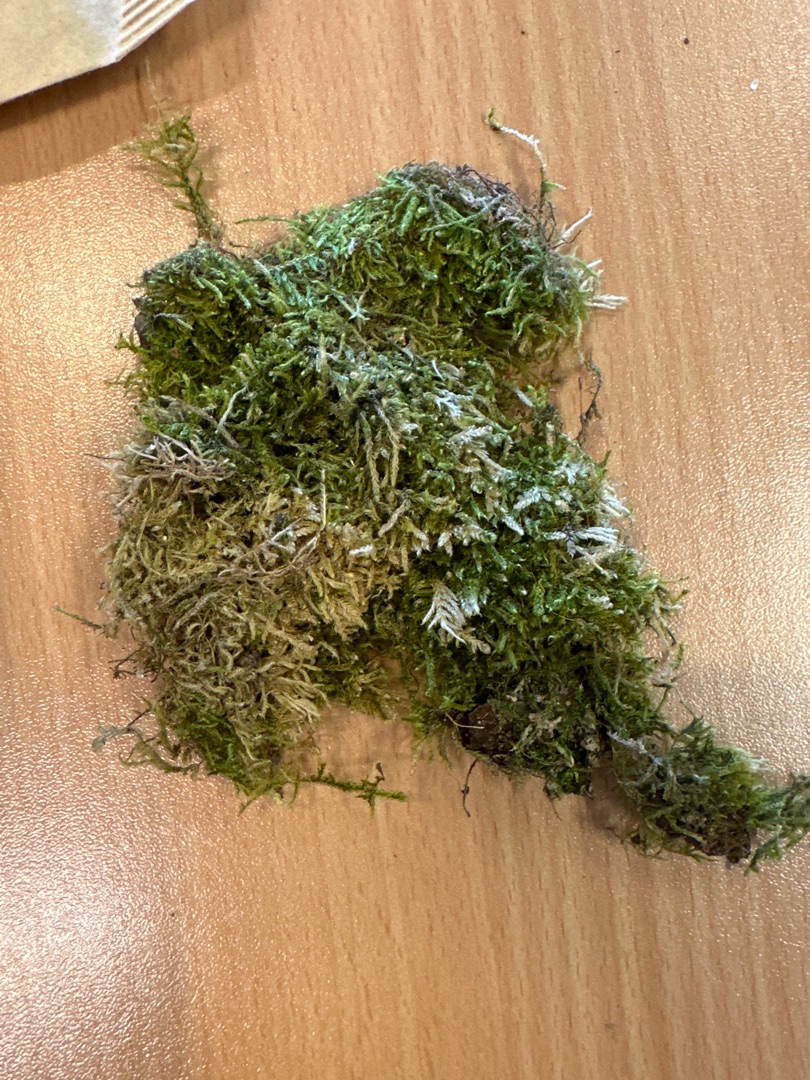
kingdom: Plantae
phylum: Bryophyta
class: Bryopsida
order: Hypnales
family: Hypnaceae
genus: Hypnum
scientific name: Hypnum
